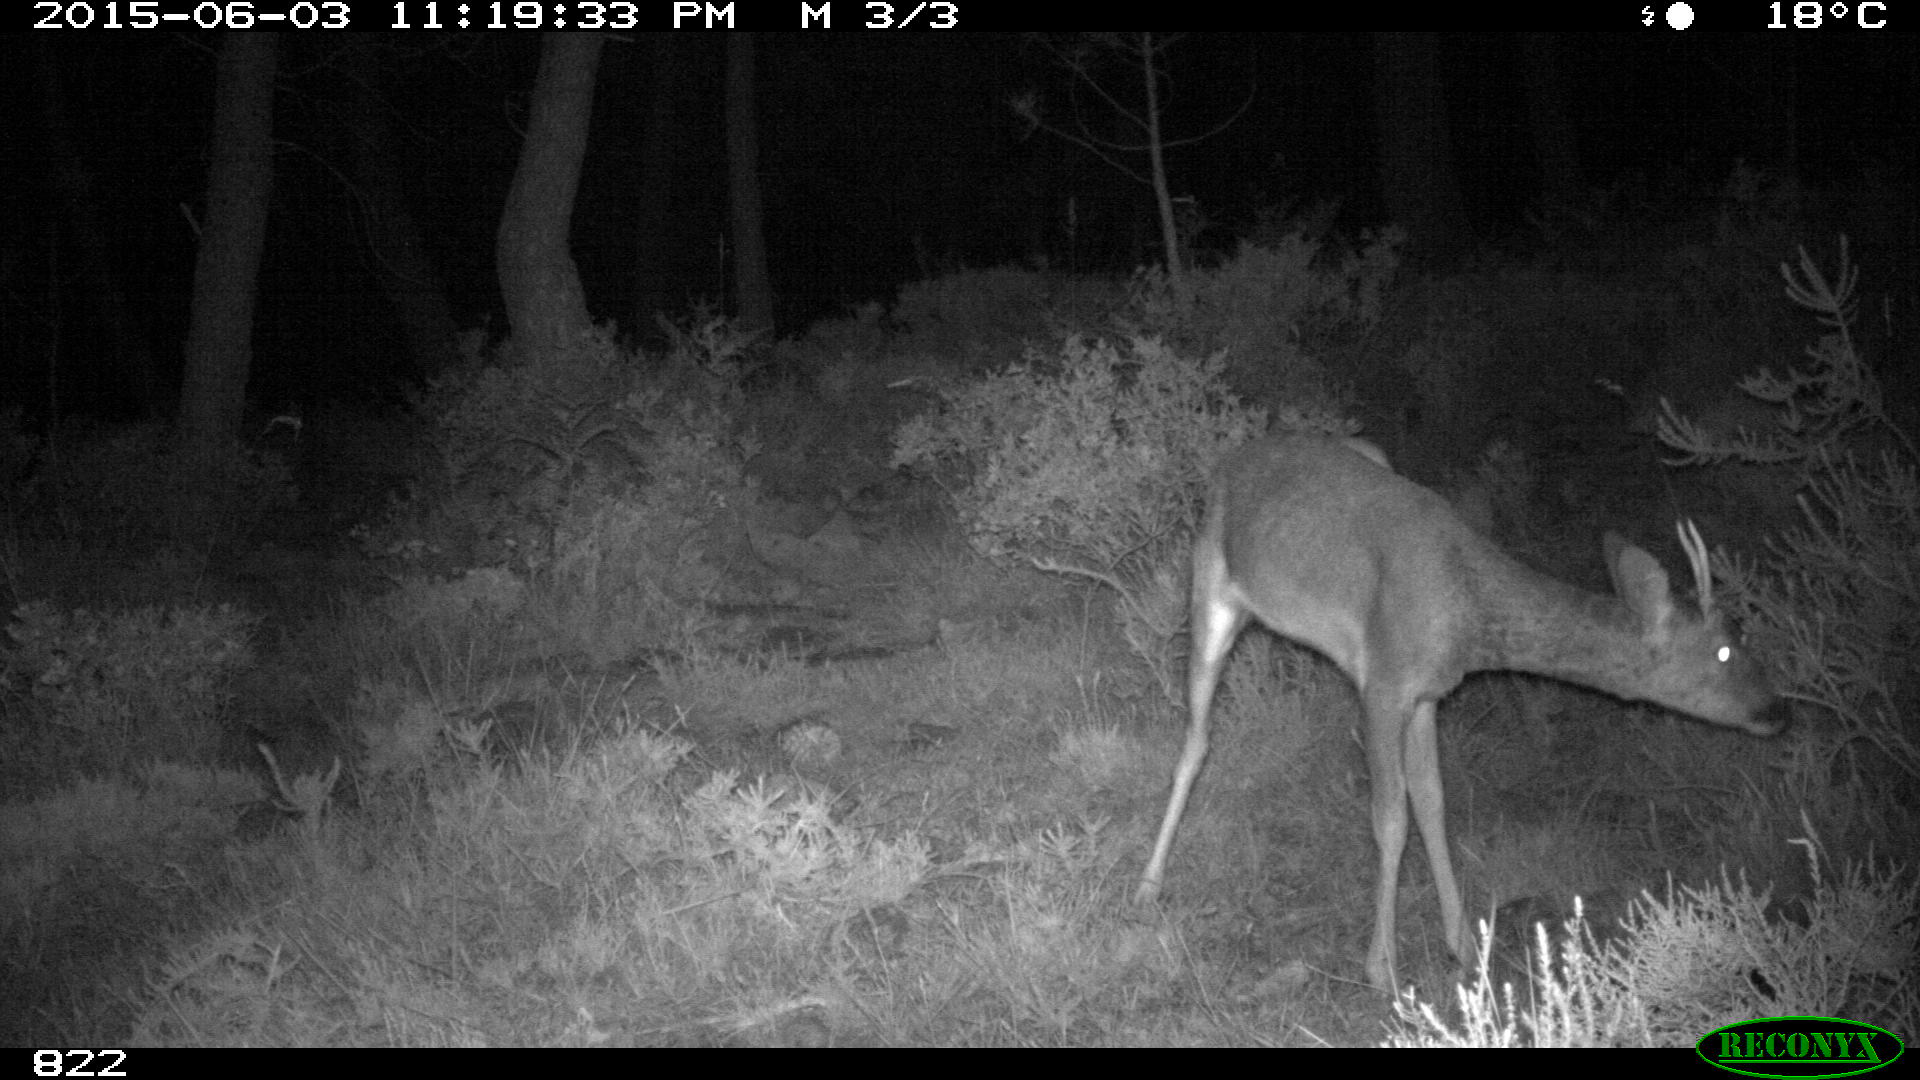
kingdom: Animalia
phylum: Chordata
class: Mammalia
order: Artiodactyla
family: Cervidae
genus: Capreolus
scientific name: Capreolus capreolus
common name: Western roe deer
